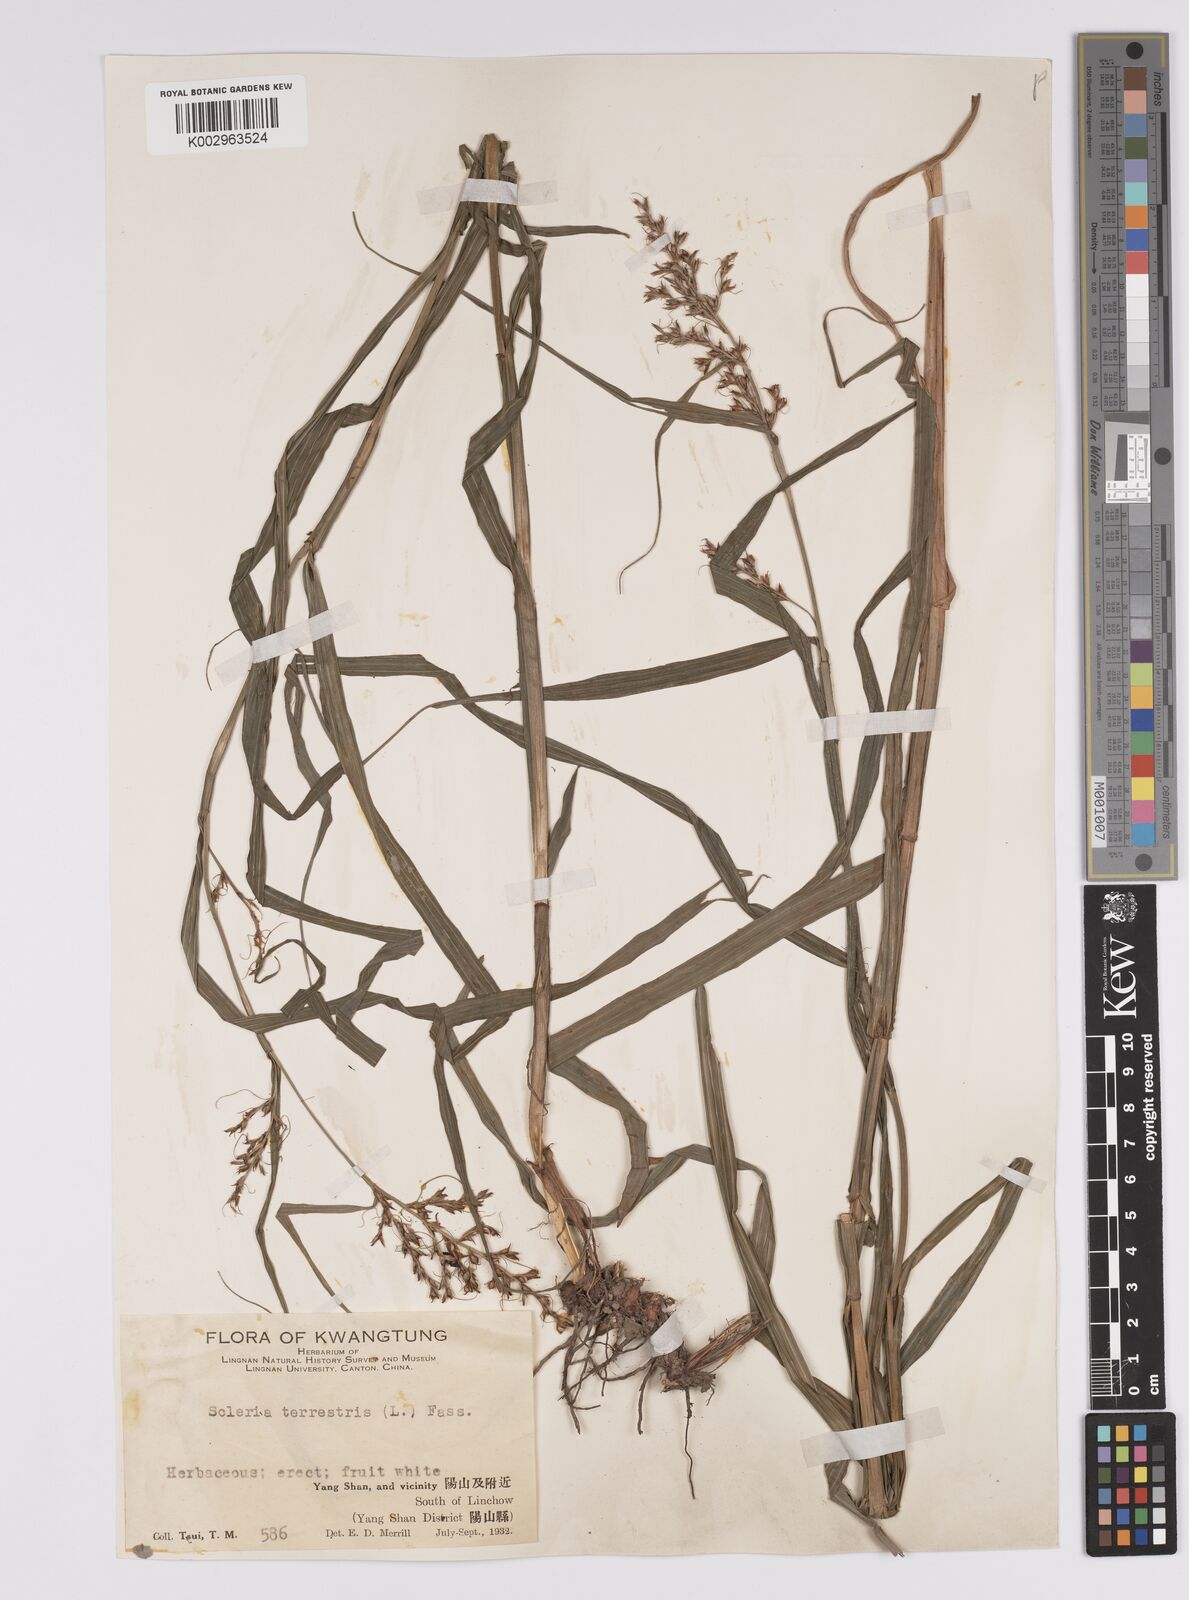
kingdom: Plantae
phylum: Tracheophyta
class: Liliopsida
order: Poales
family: Cyperaceae
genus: Scleria
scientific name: Scleria terrestris
